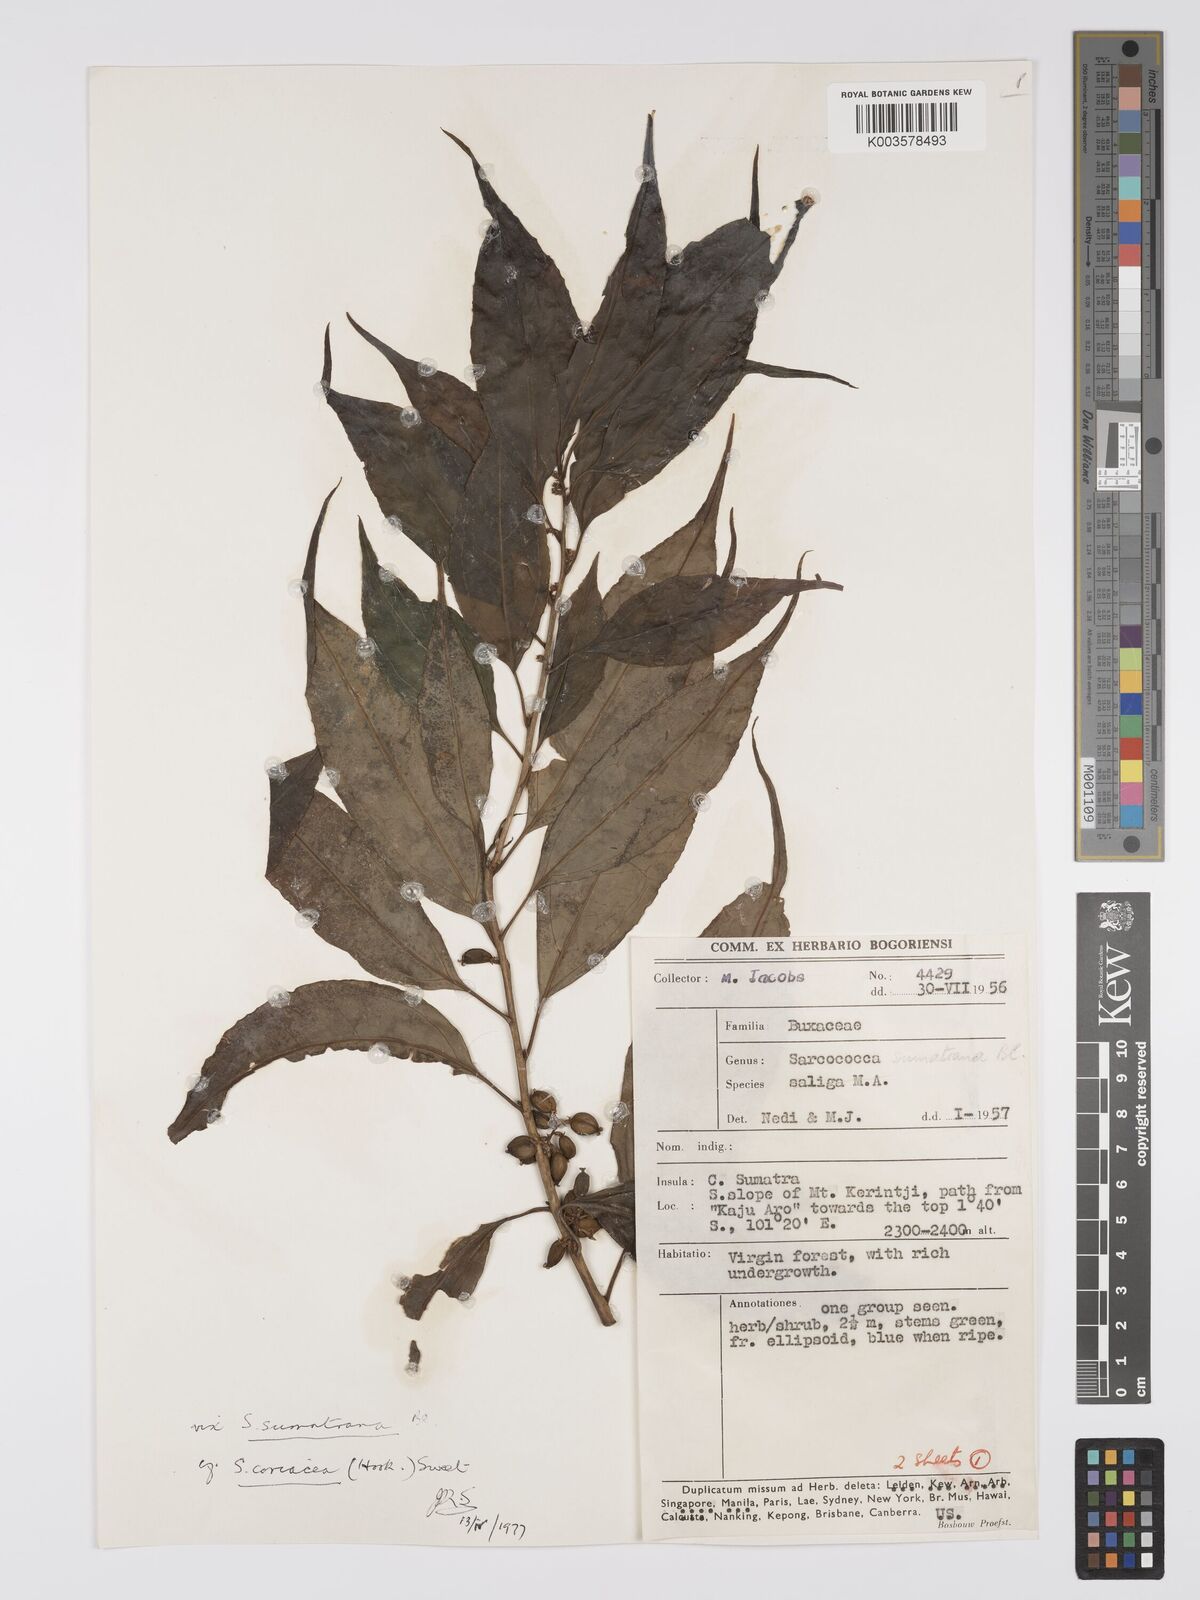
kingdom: Plantae
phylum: Tracheophyta
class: Magnoliopsida
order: Buxales
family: Buxaceae
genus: Sarcococca
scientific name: Sarcococca coriacea
